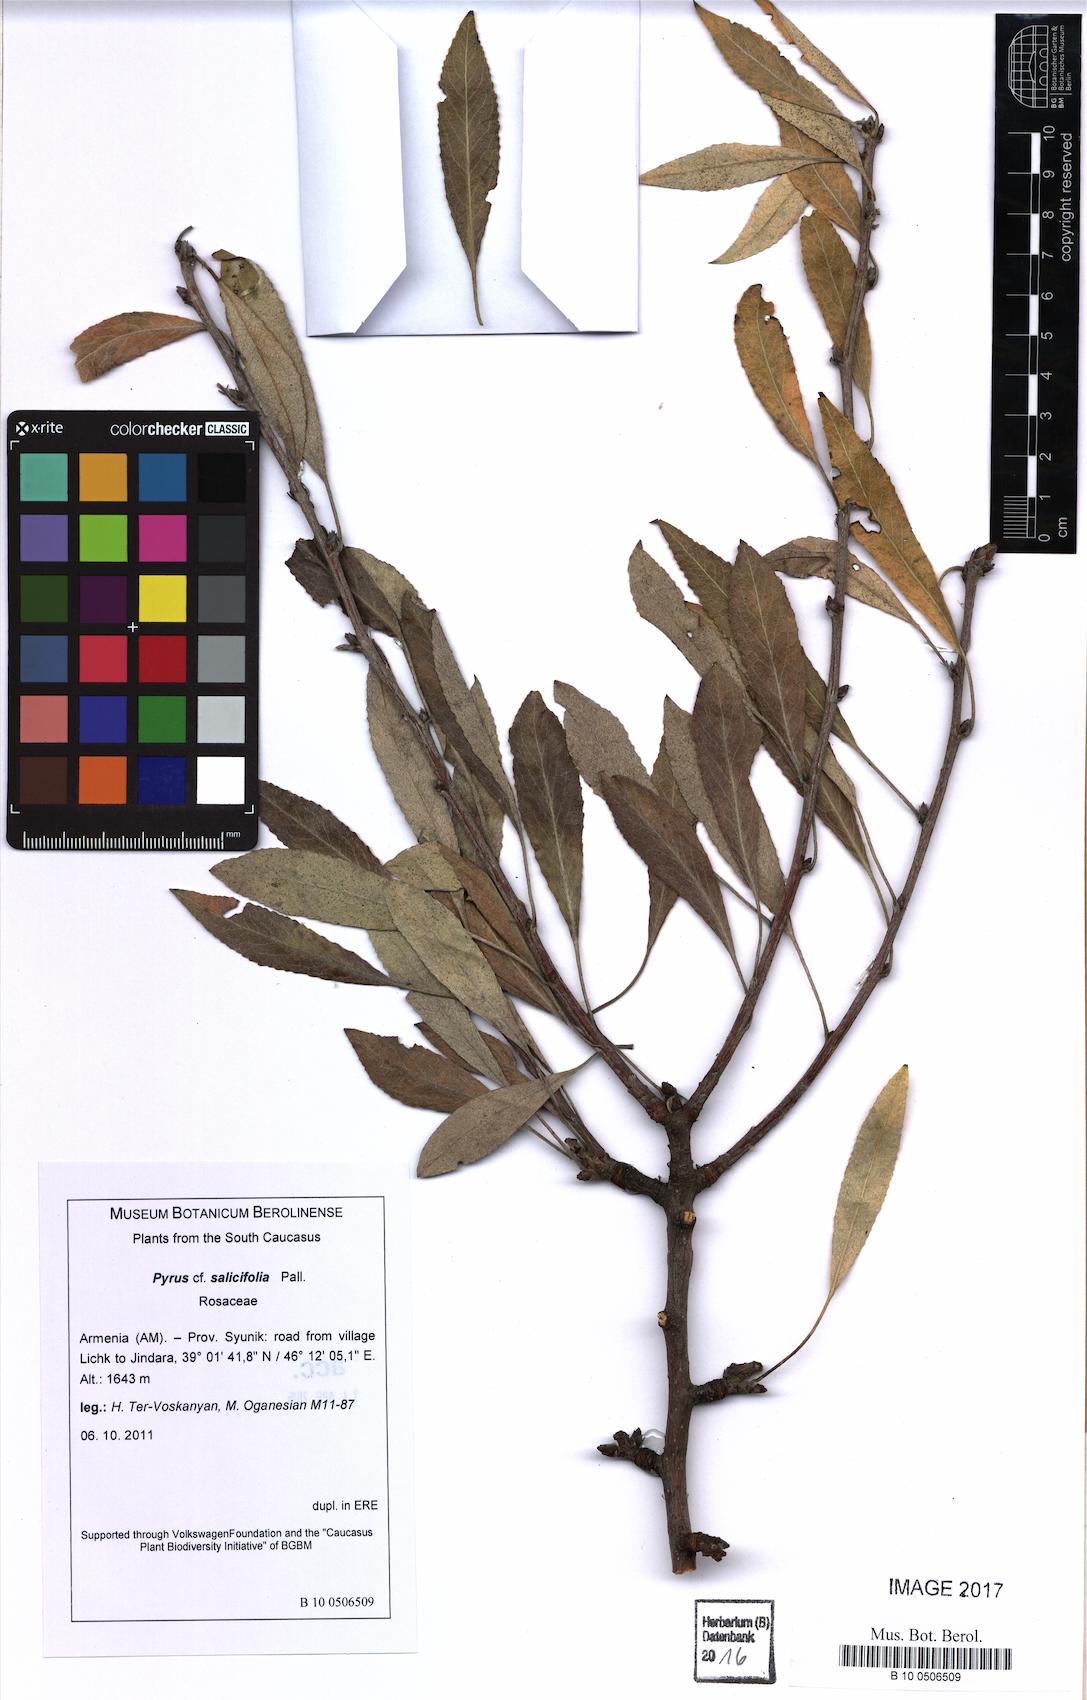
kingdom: Plantae
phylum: Tracheophyta
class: Magnoliopsida
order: Rosales
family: Rosaceae
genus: Pyrus
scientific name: Pyrus salicifolia
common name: Willow-leaved pear
